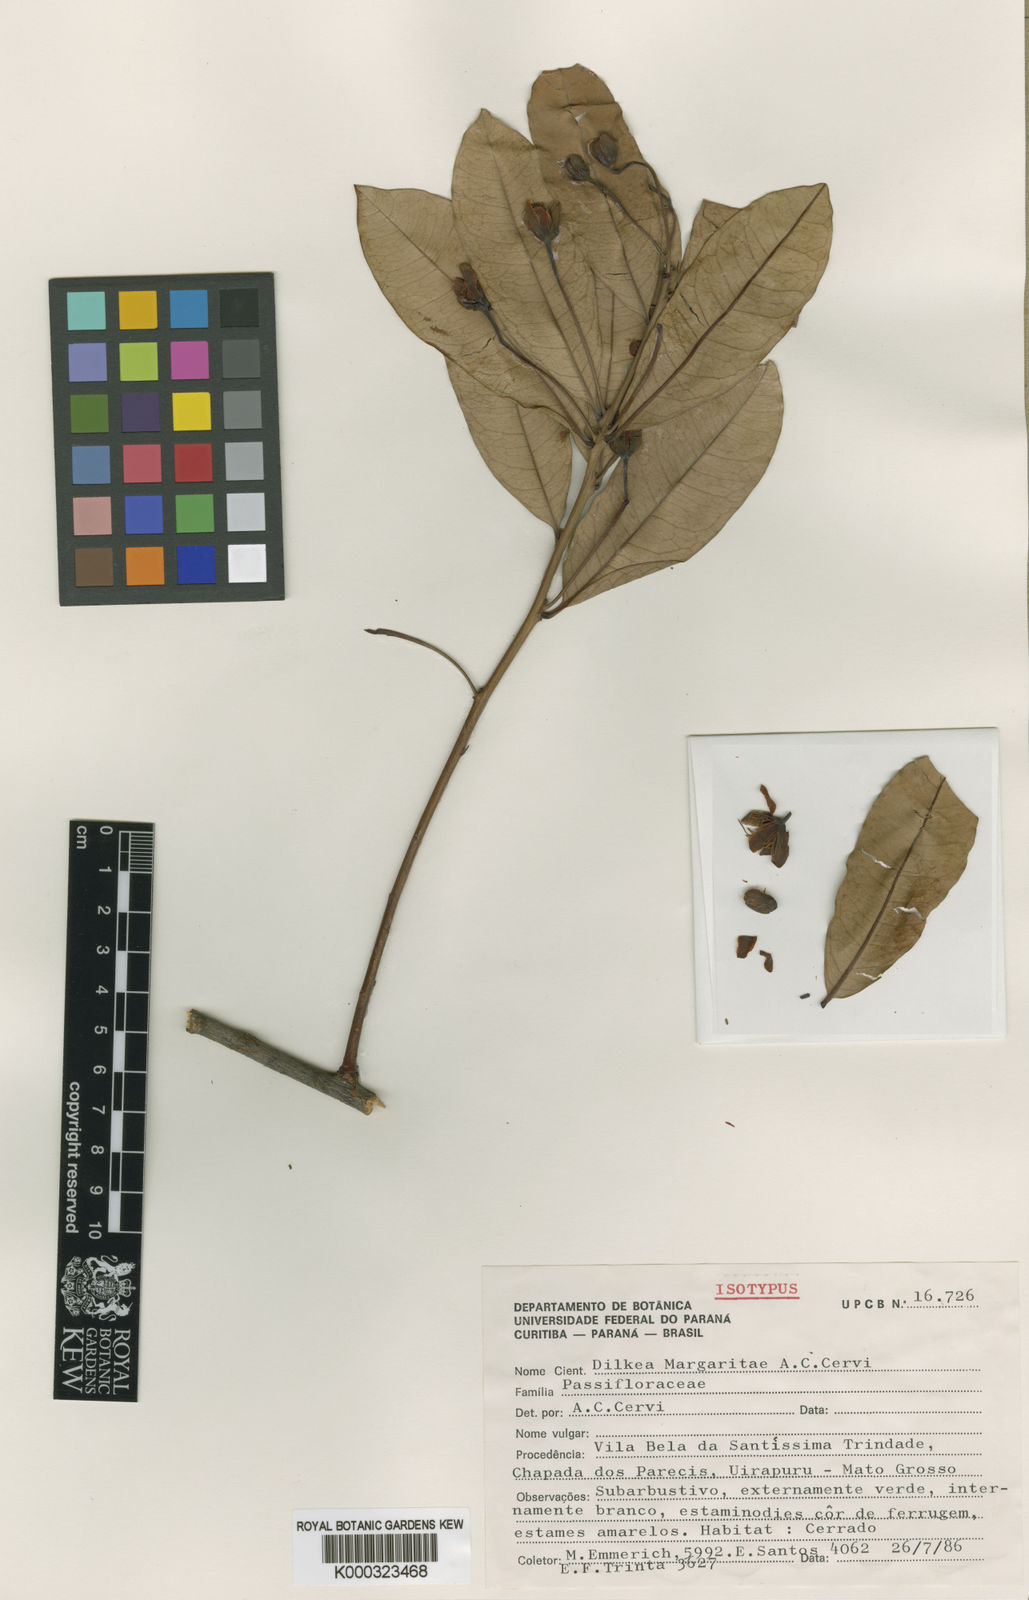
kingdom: Plantae
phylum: Tracheophyta
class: Magnoliopsida
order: Malpighiales
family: Passifloraceae
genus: Mitostemma
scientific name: Mitostemma margaritae
